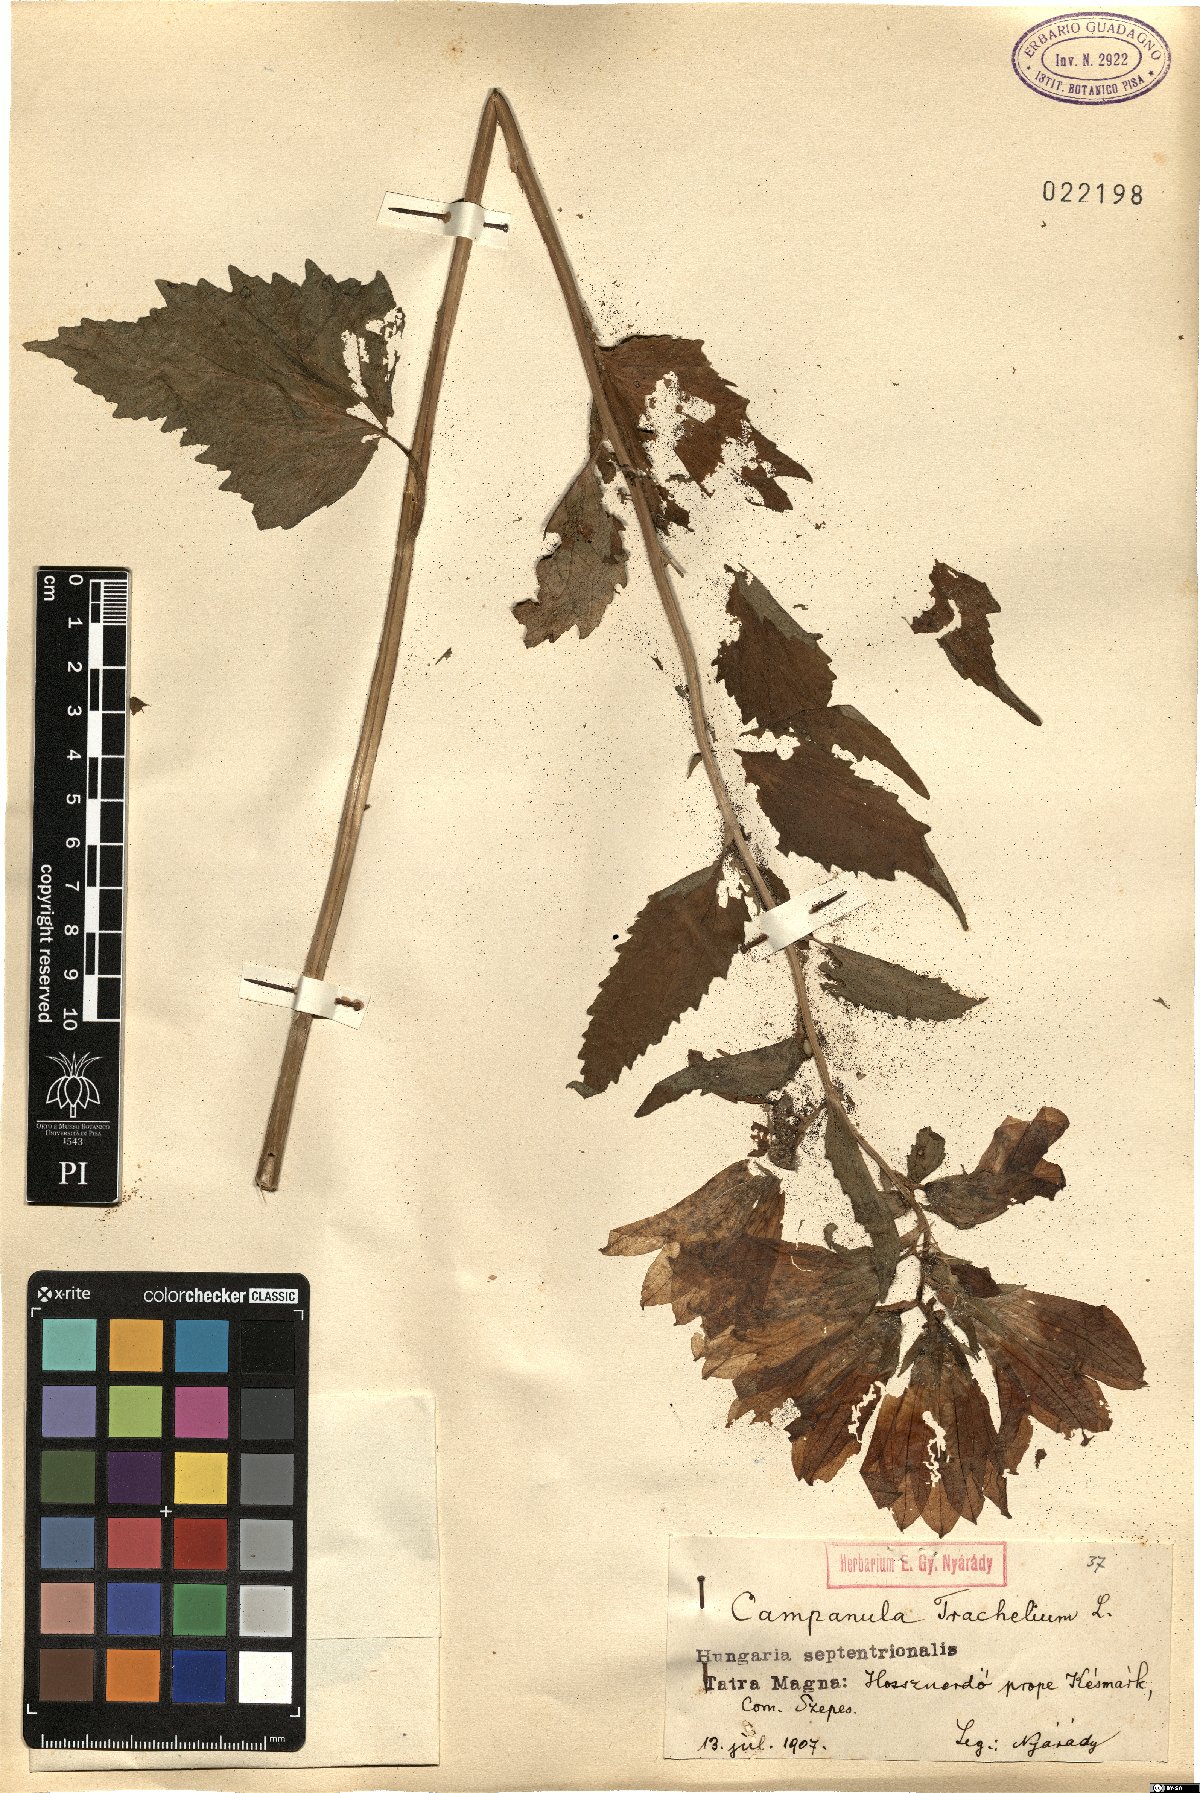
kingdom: Plantae
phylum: Tracheophyta
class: Magnoliopsida
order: Asterales
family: Campanulaceae
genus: Campanula
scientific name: Campanula trachelium
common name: Nettle-leaved bellflower
